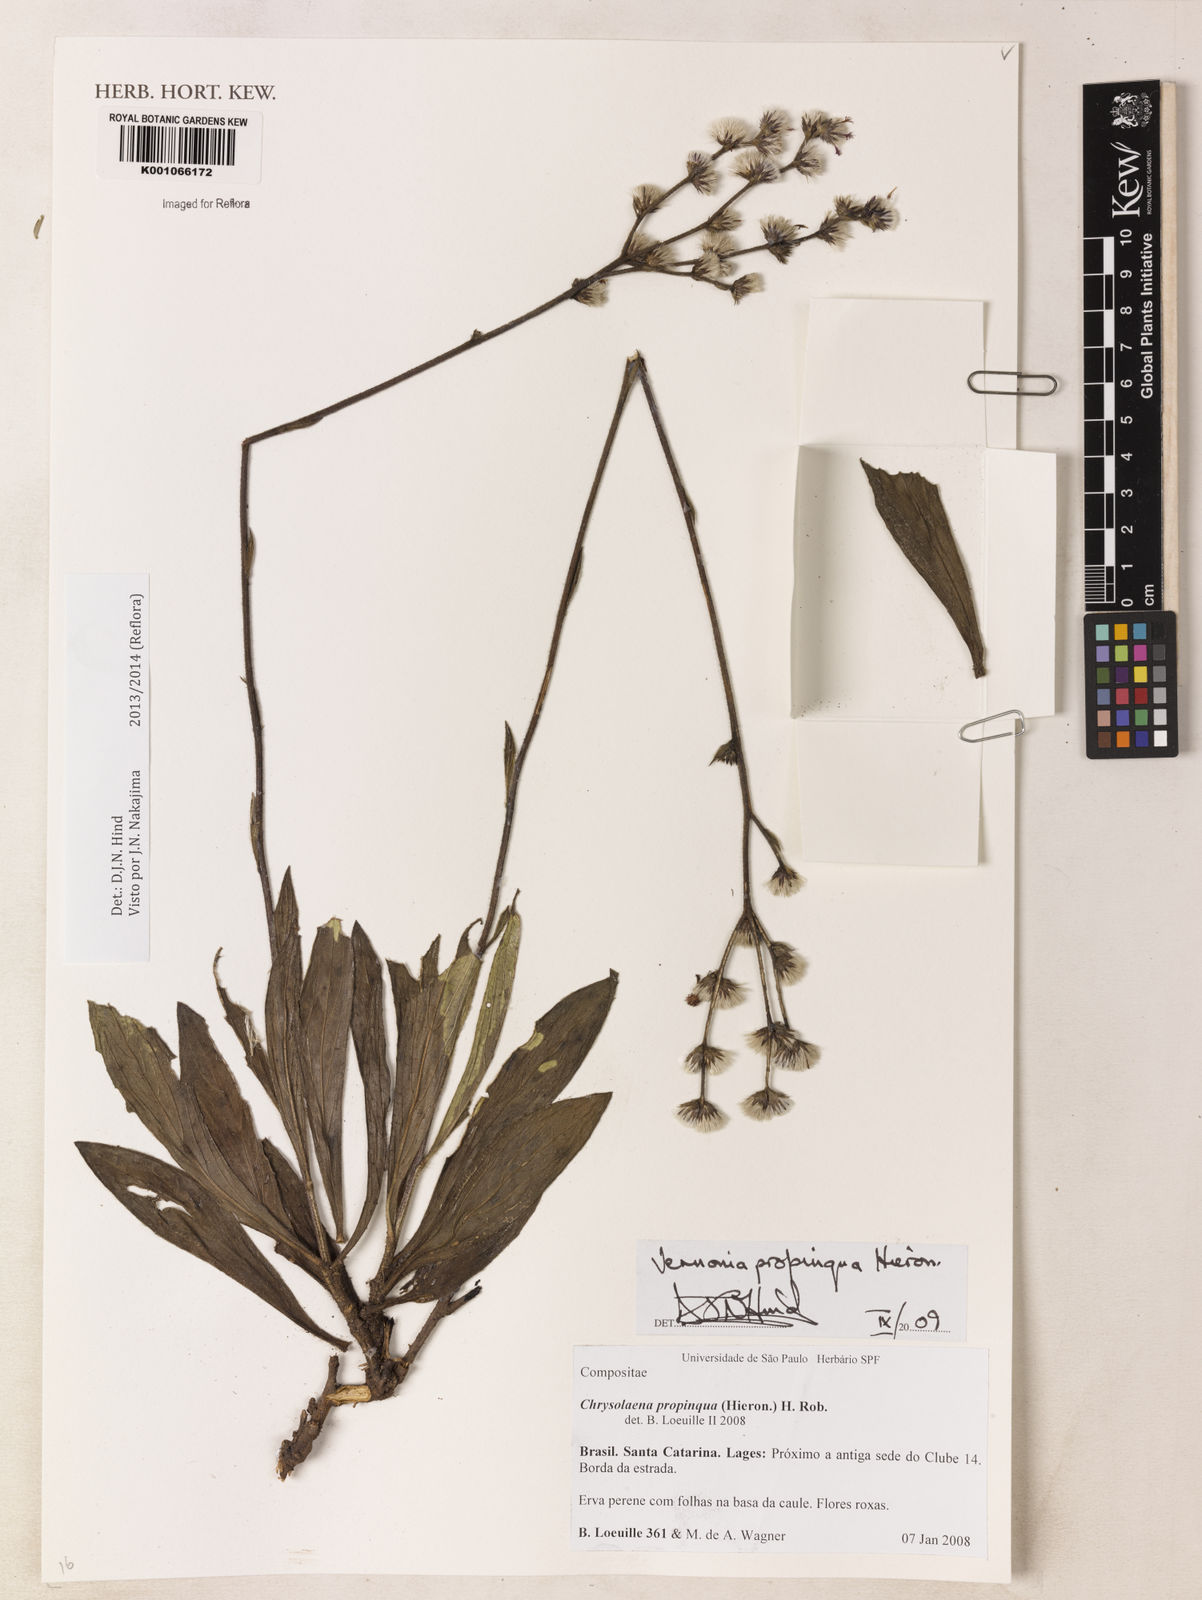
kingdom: Plantae
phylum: Tracheophyta
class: Magnoliopsida
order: Asterales
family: Asteraceae
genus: Chrysolaena
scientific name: Chrysolaena propinqua
